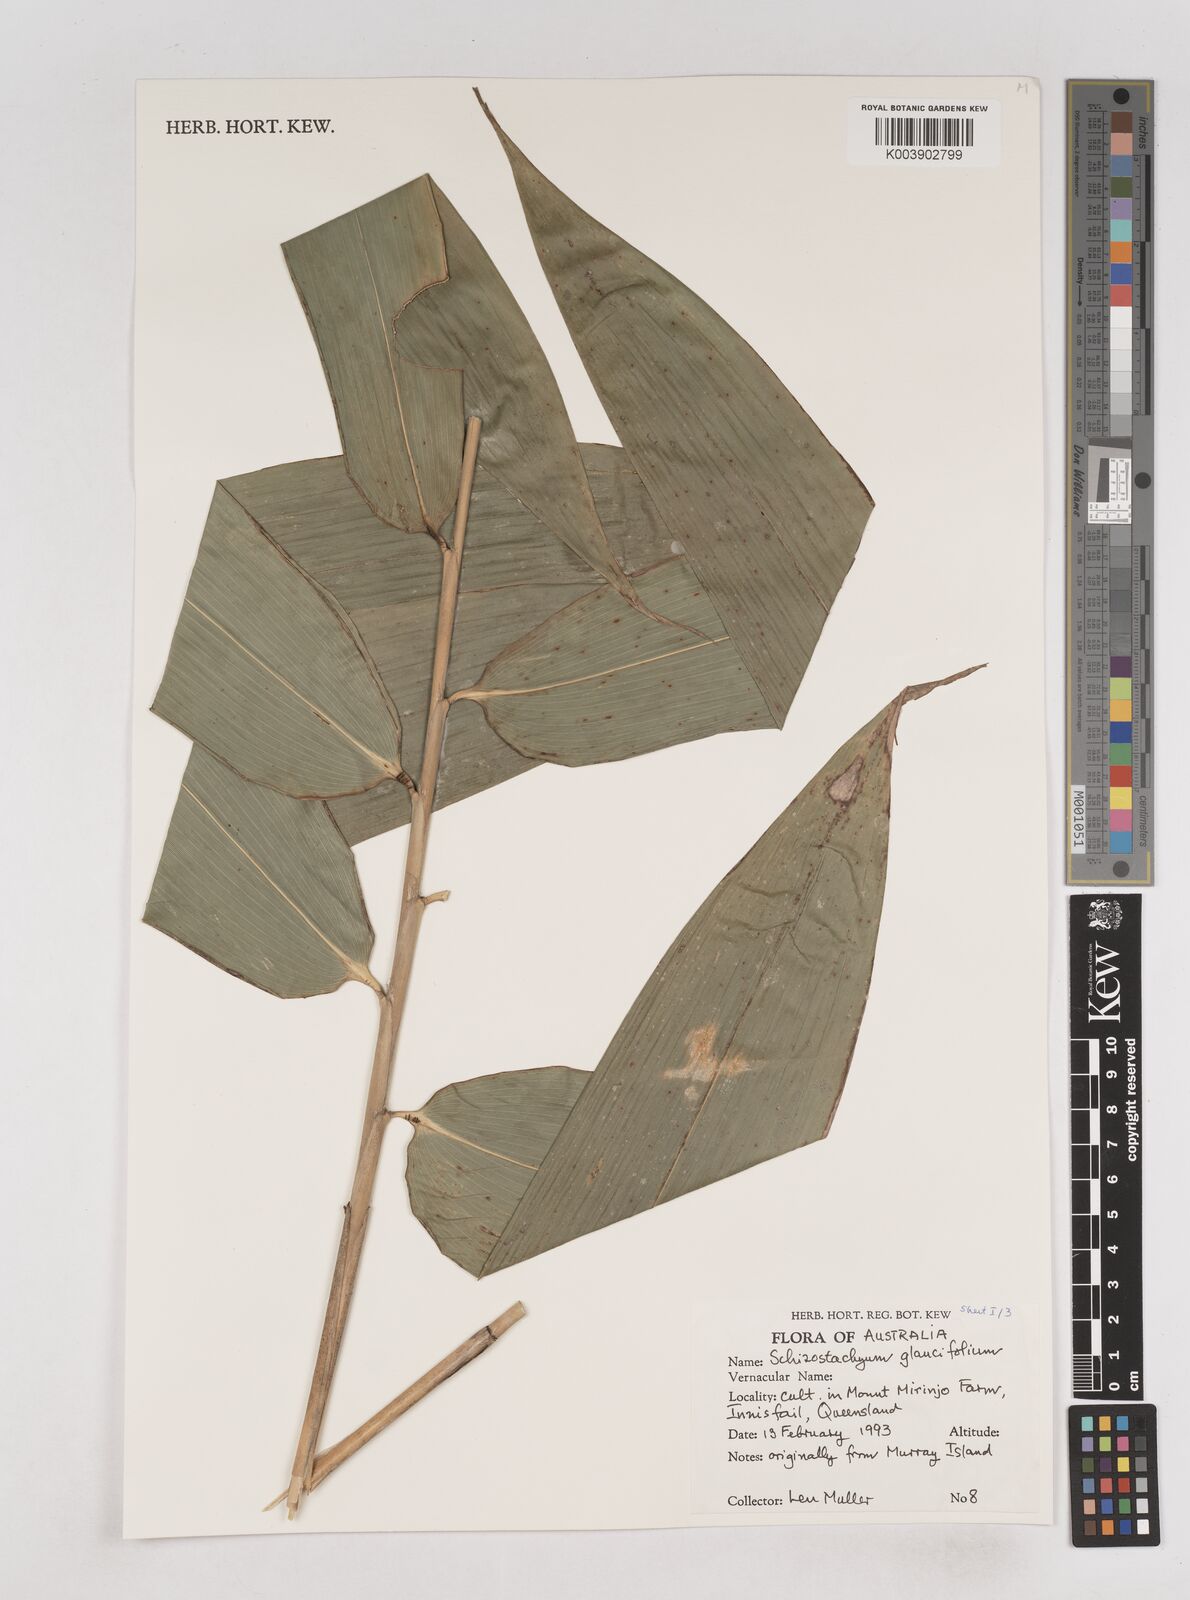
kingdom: Plantae
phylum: Tracheophyta
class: Liliopsida
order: Poales
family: Poaceae
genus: Schizostachyum
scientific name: Schizostachyum
